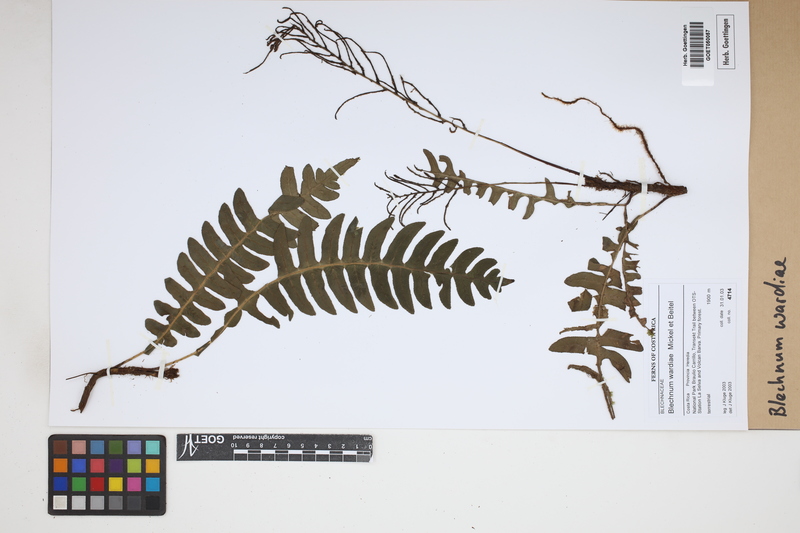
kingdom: Plantae
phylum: Tracheophyta
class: Polypodiopsida
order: Polypodiales
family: Blechnaceae
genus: Austroblechnum
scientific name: Austroblechnum wardiae
